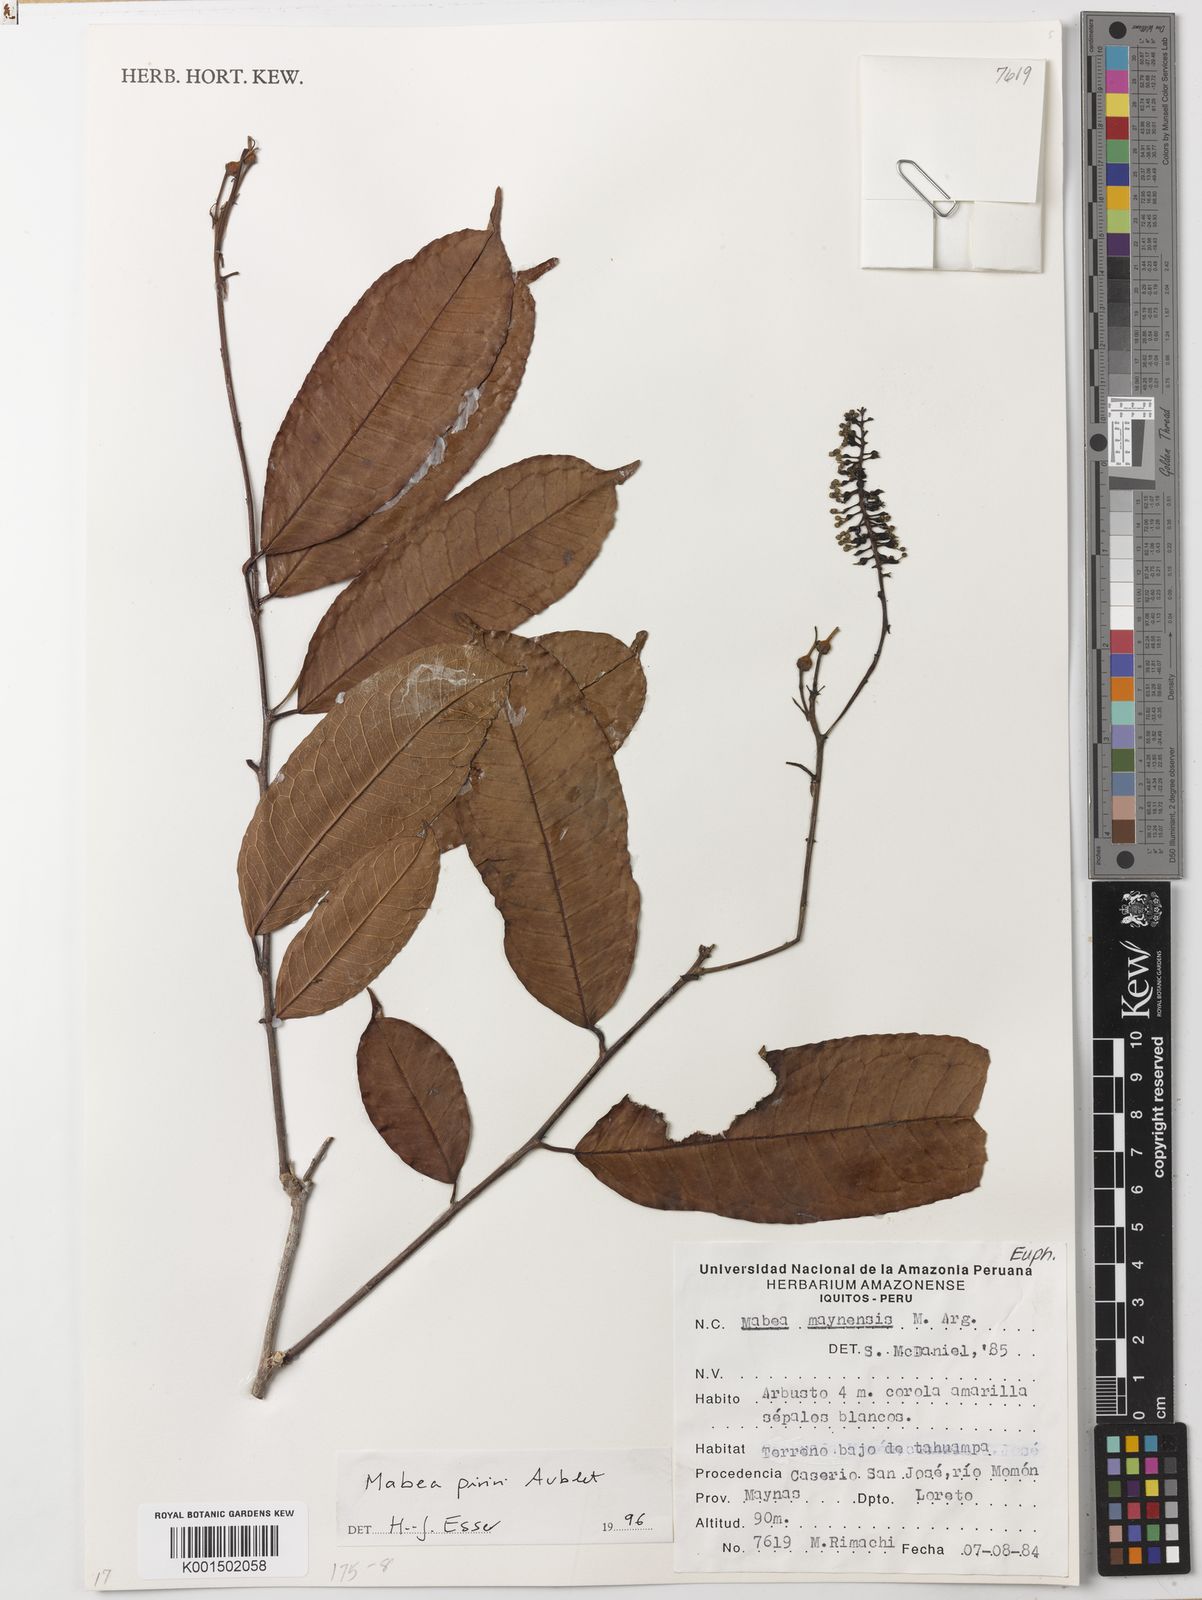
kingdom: Plantae
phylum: Tracheophyta
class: Magnoliopsida
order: Malpighiales
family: Euphorbiaceae
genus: Mabea
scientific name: Mabea piriri
